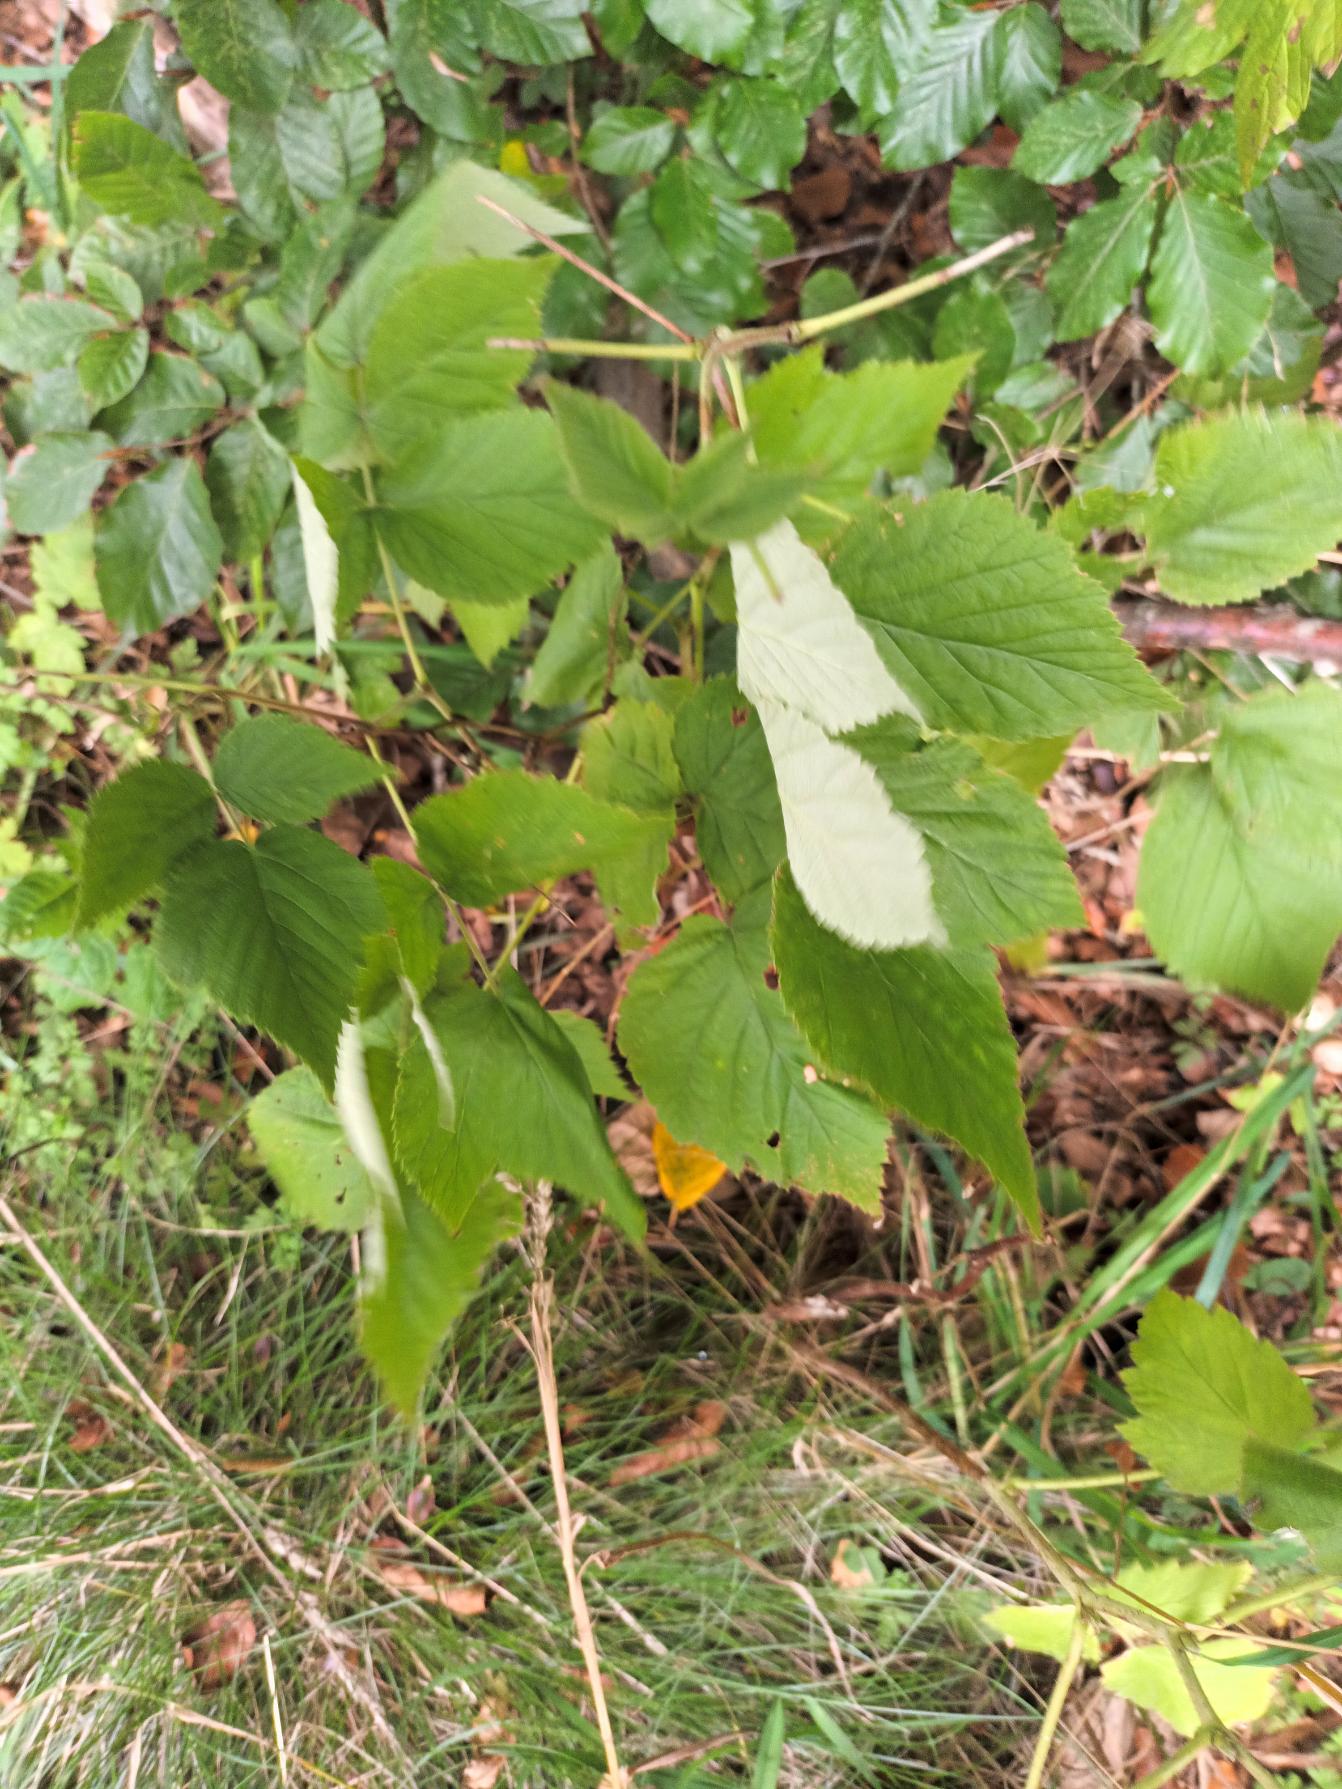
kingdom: Plantae
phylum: Tracheophyta
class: Magnoliopsida
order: Rosales
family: Rosaceae
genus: Rubus
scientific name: Rubus idaeus
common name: Hindbær
